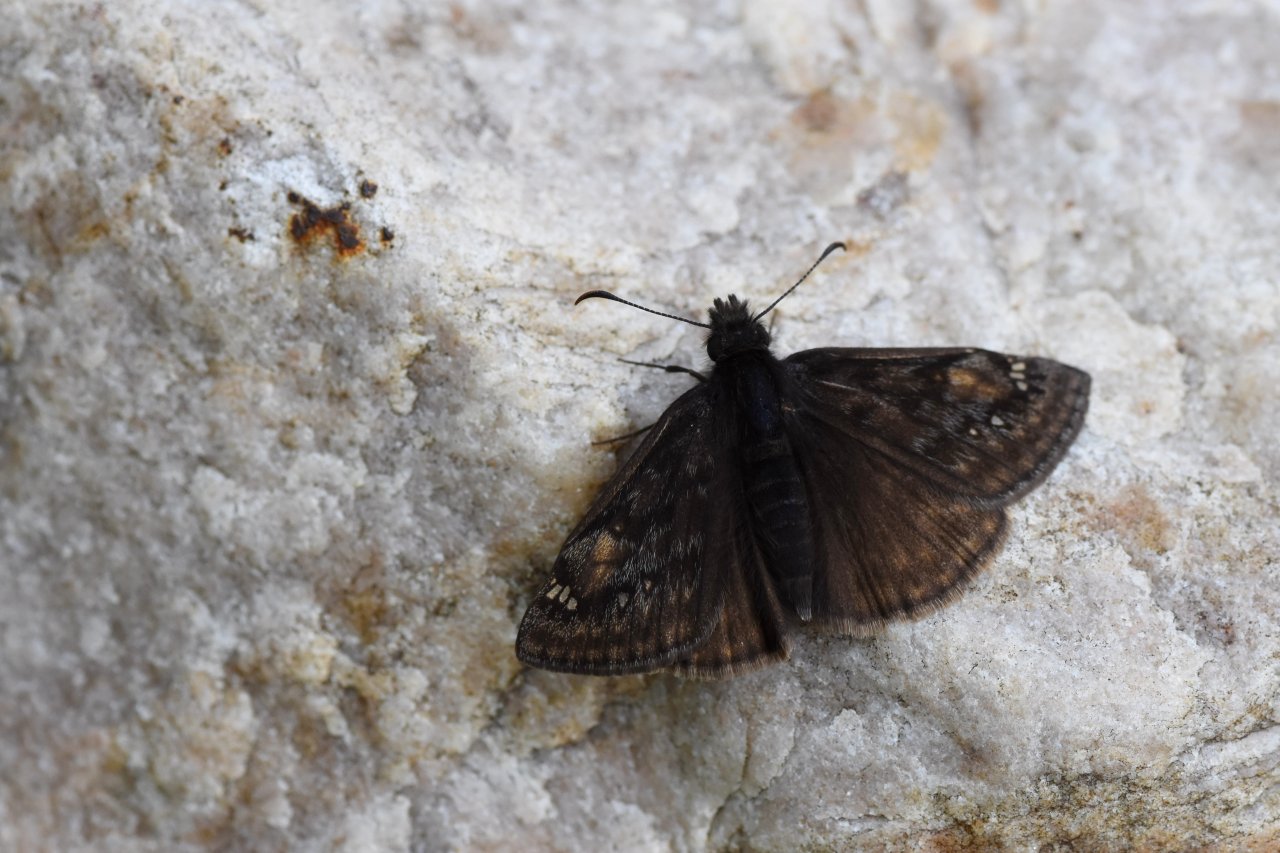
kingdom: Animalia
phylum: Arthropoda
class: Insecta
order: Lepidoptera
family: Hesperiidae
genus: Gesta
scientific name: Gesta
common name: Juvenal's Duskywing
